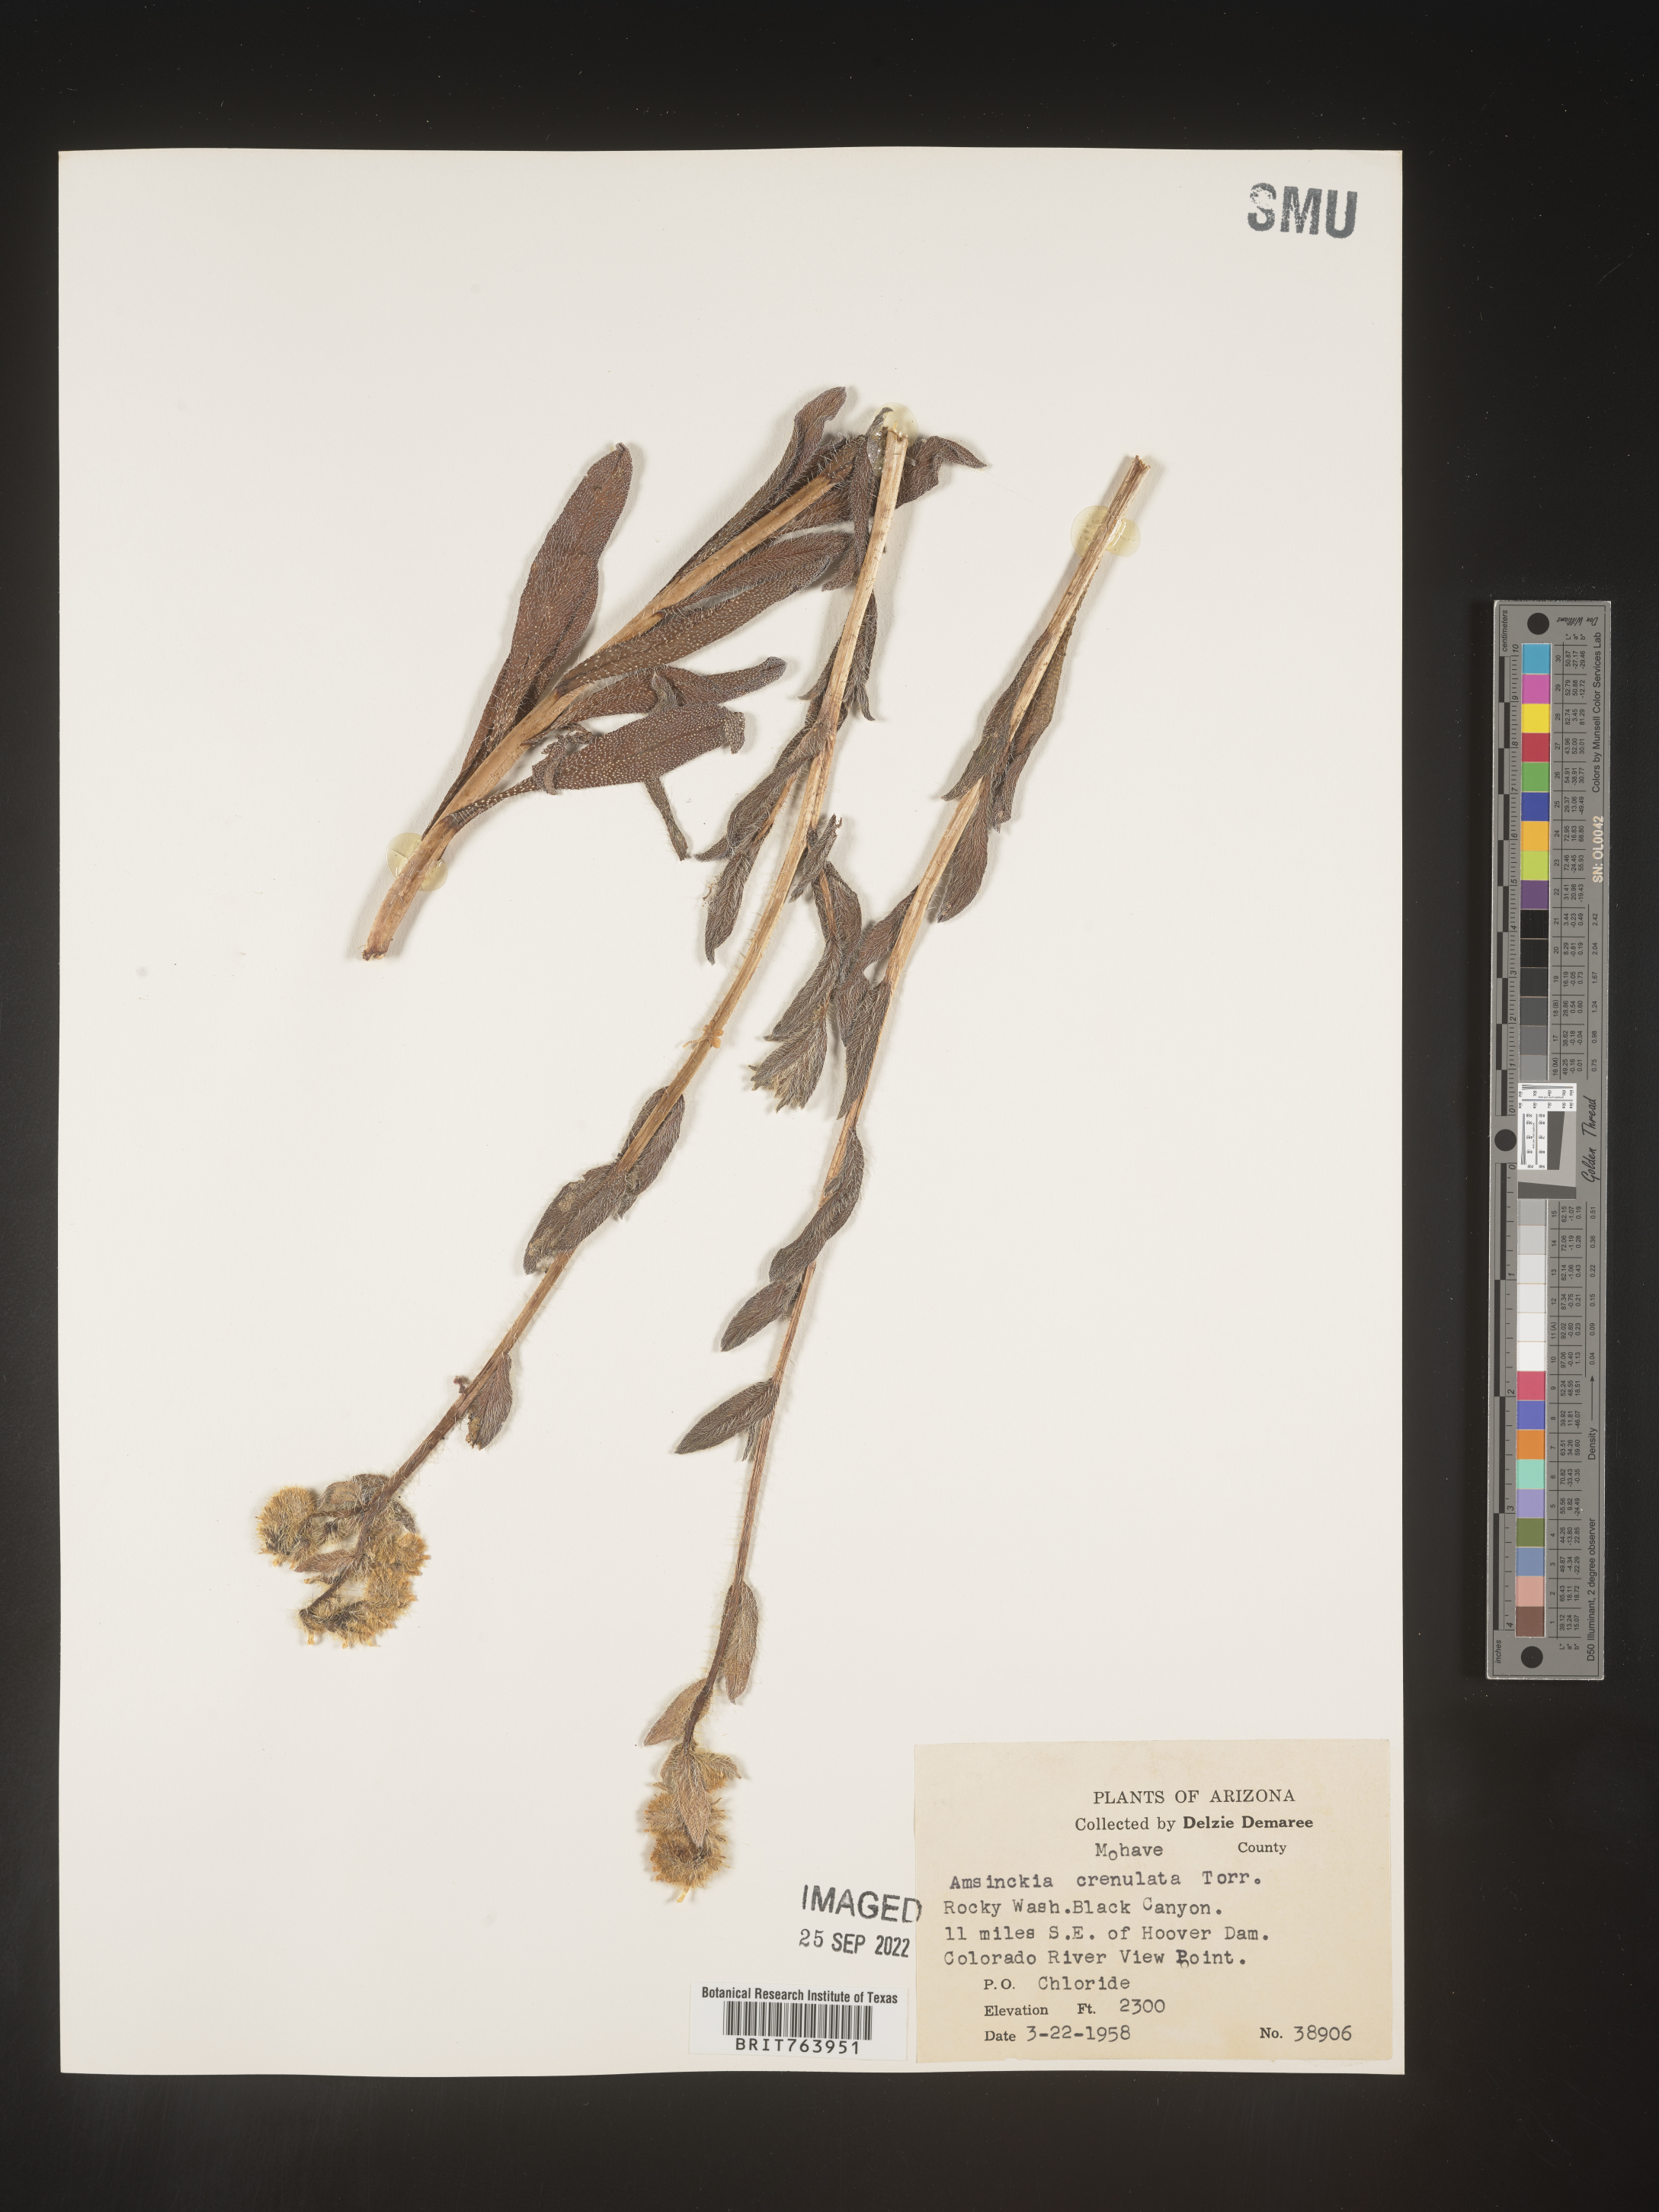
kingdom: Plantae
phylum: Tracheophyta
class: Magnoliopsida
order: Boraginales
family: Boraginaceae
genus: Amsinckia
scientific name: Amsinckia
